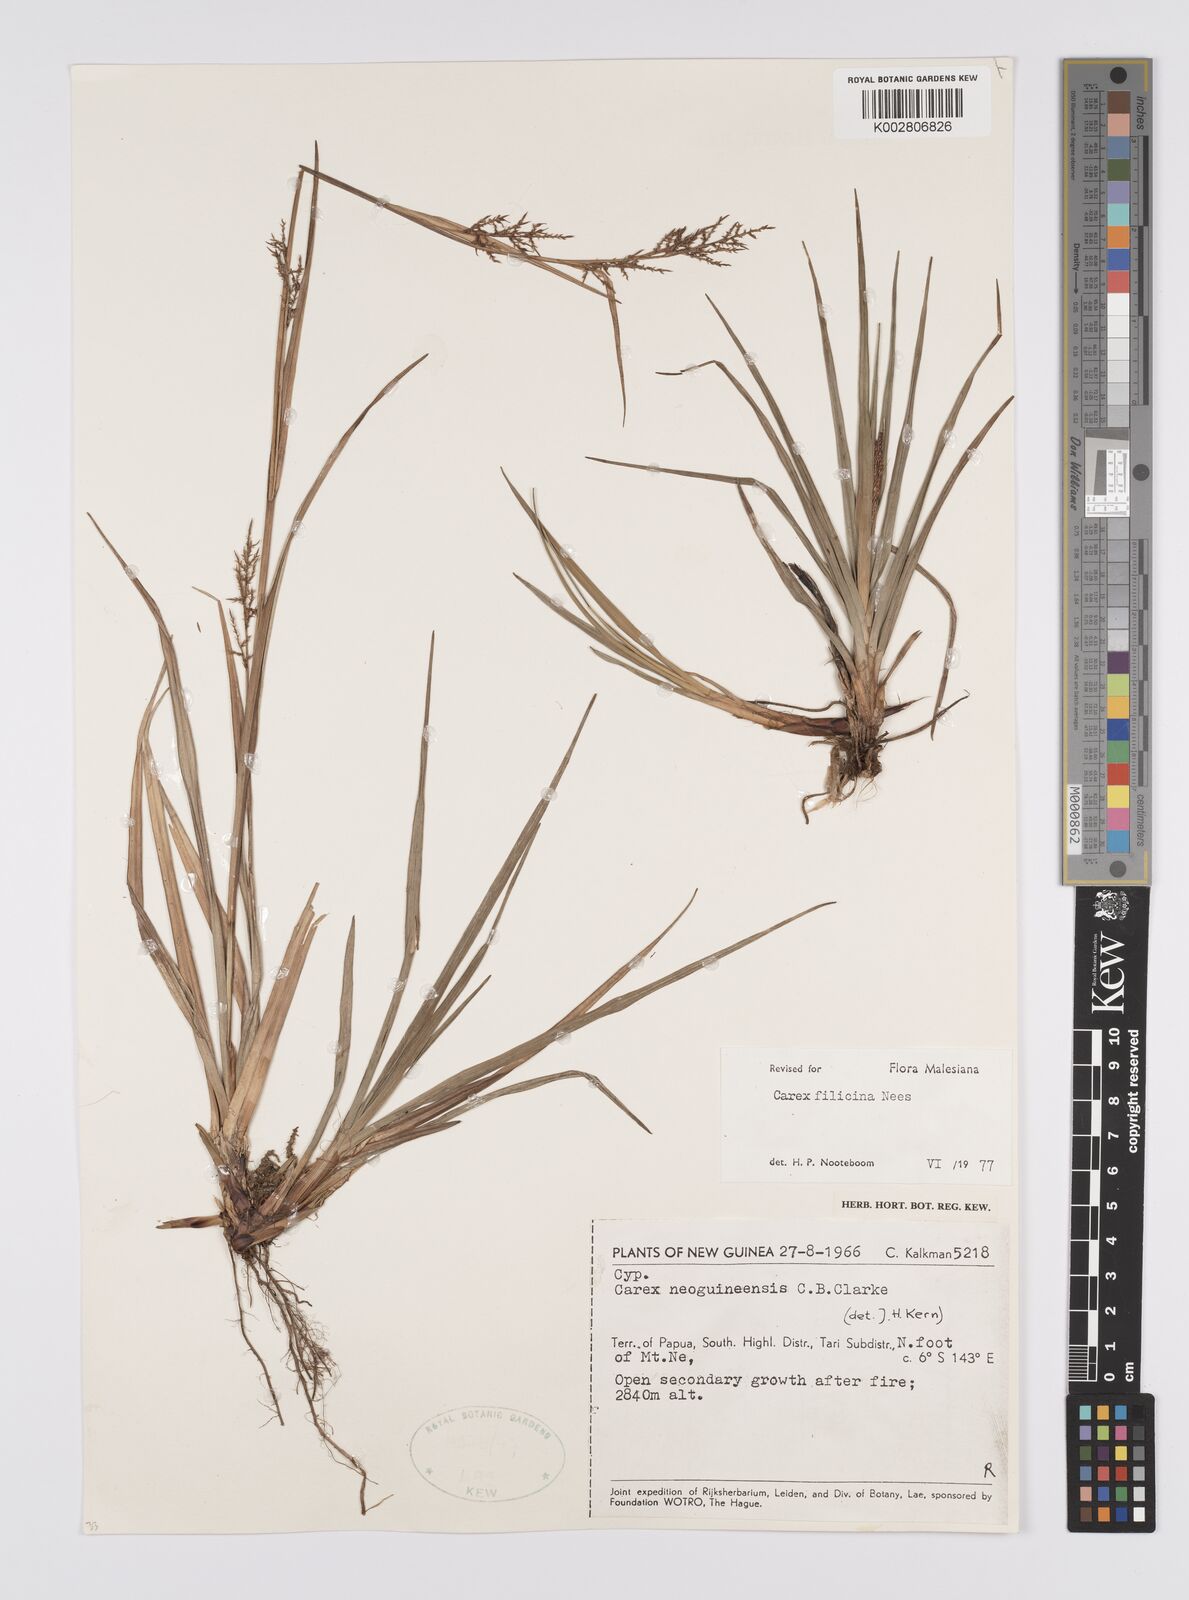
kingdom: Plantae
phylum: Tracheophyta
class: Liliopsida
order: Poales
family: Cyperaceae
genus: Carex
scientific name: Carex filicina
